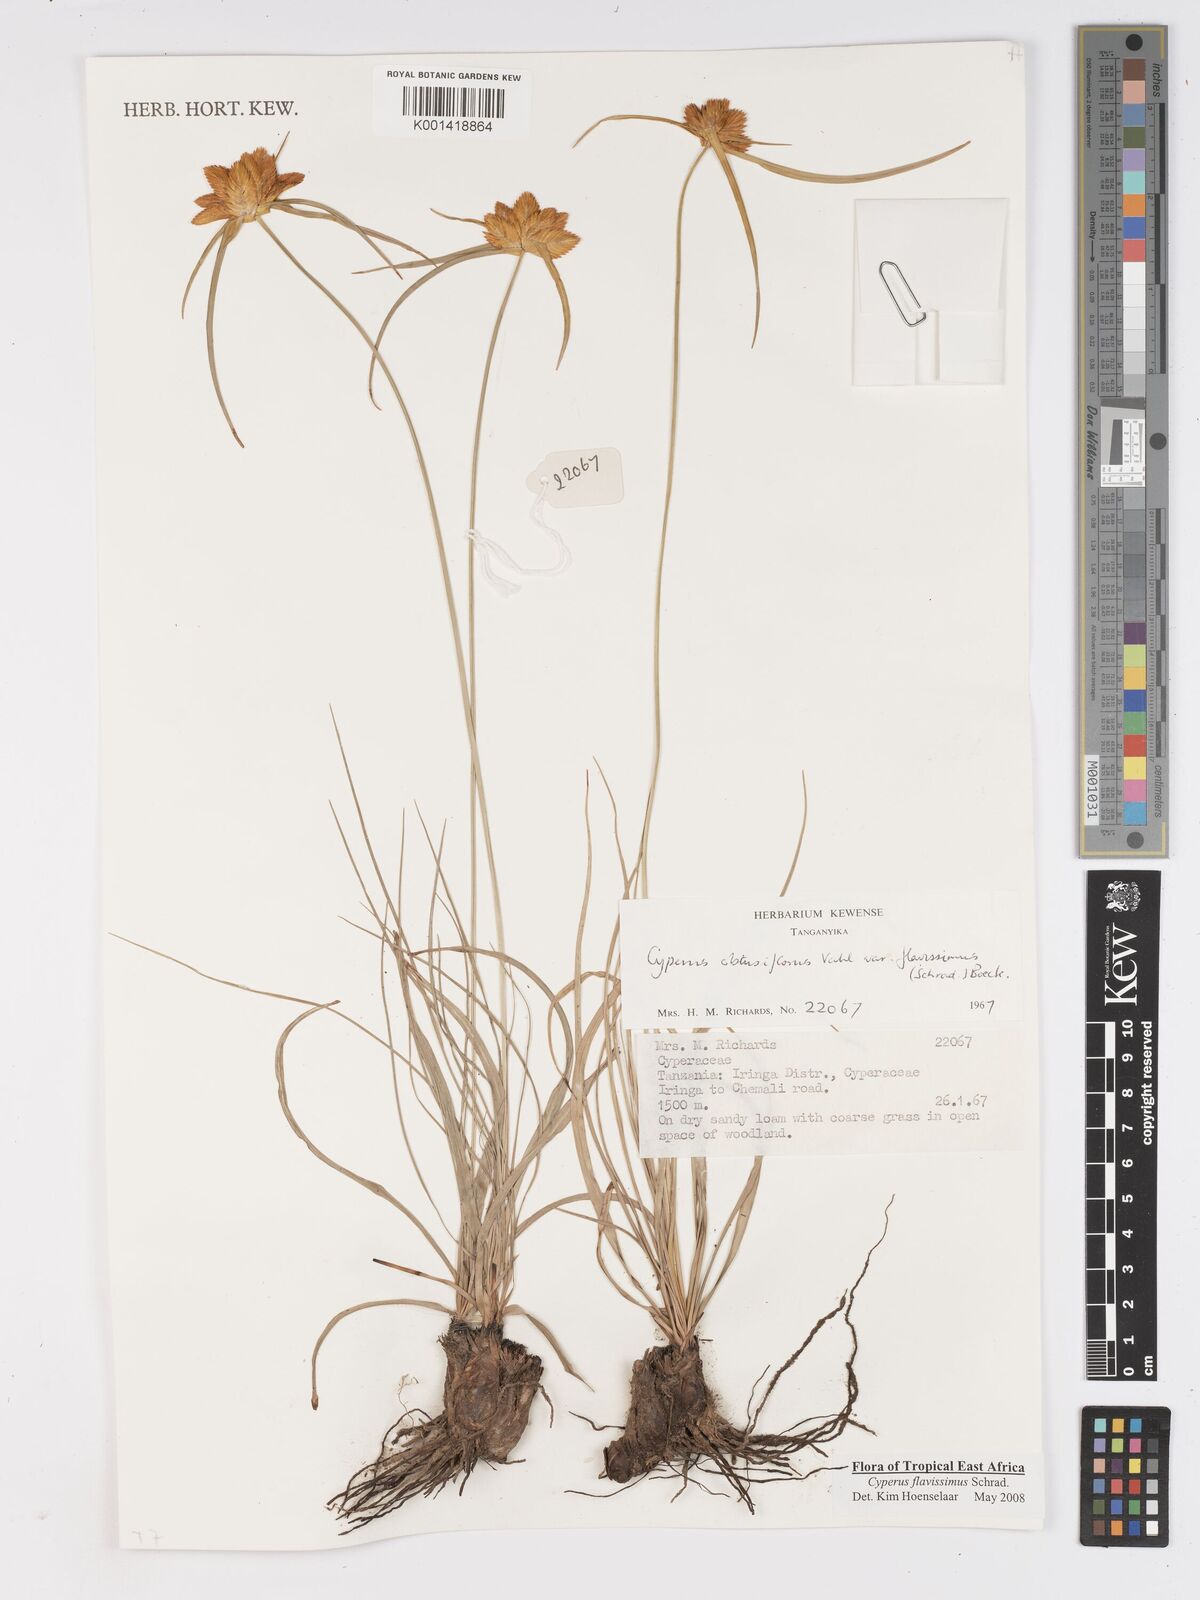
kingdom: Plantae
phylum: Tracheophyta
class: Liliopsida
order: Poales
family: Cyperaceae
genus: Cyperus
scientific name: Cyperus sphaerocephalus
